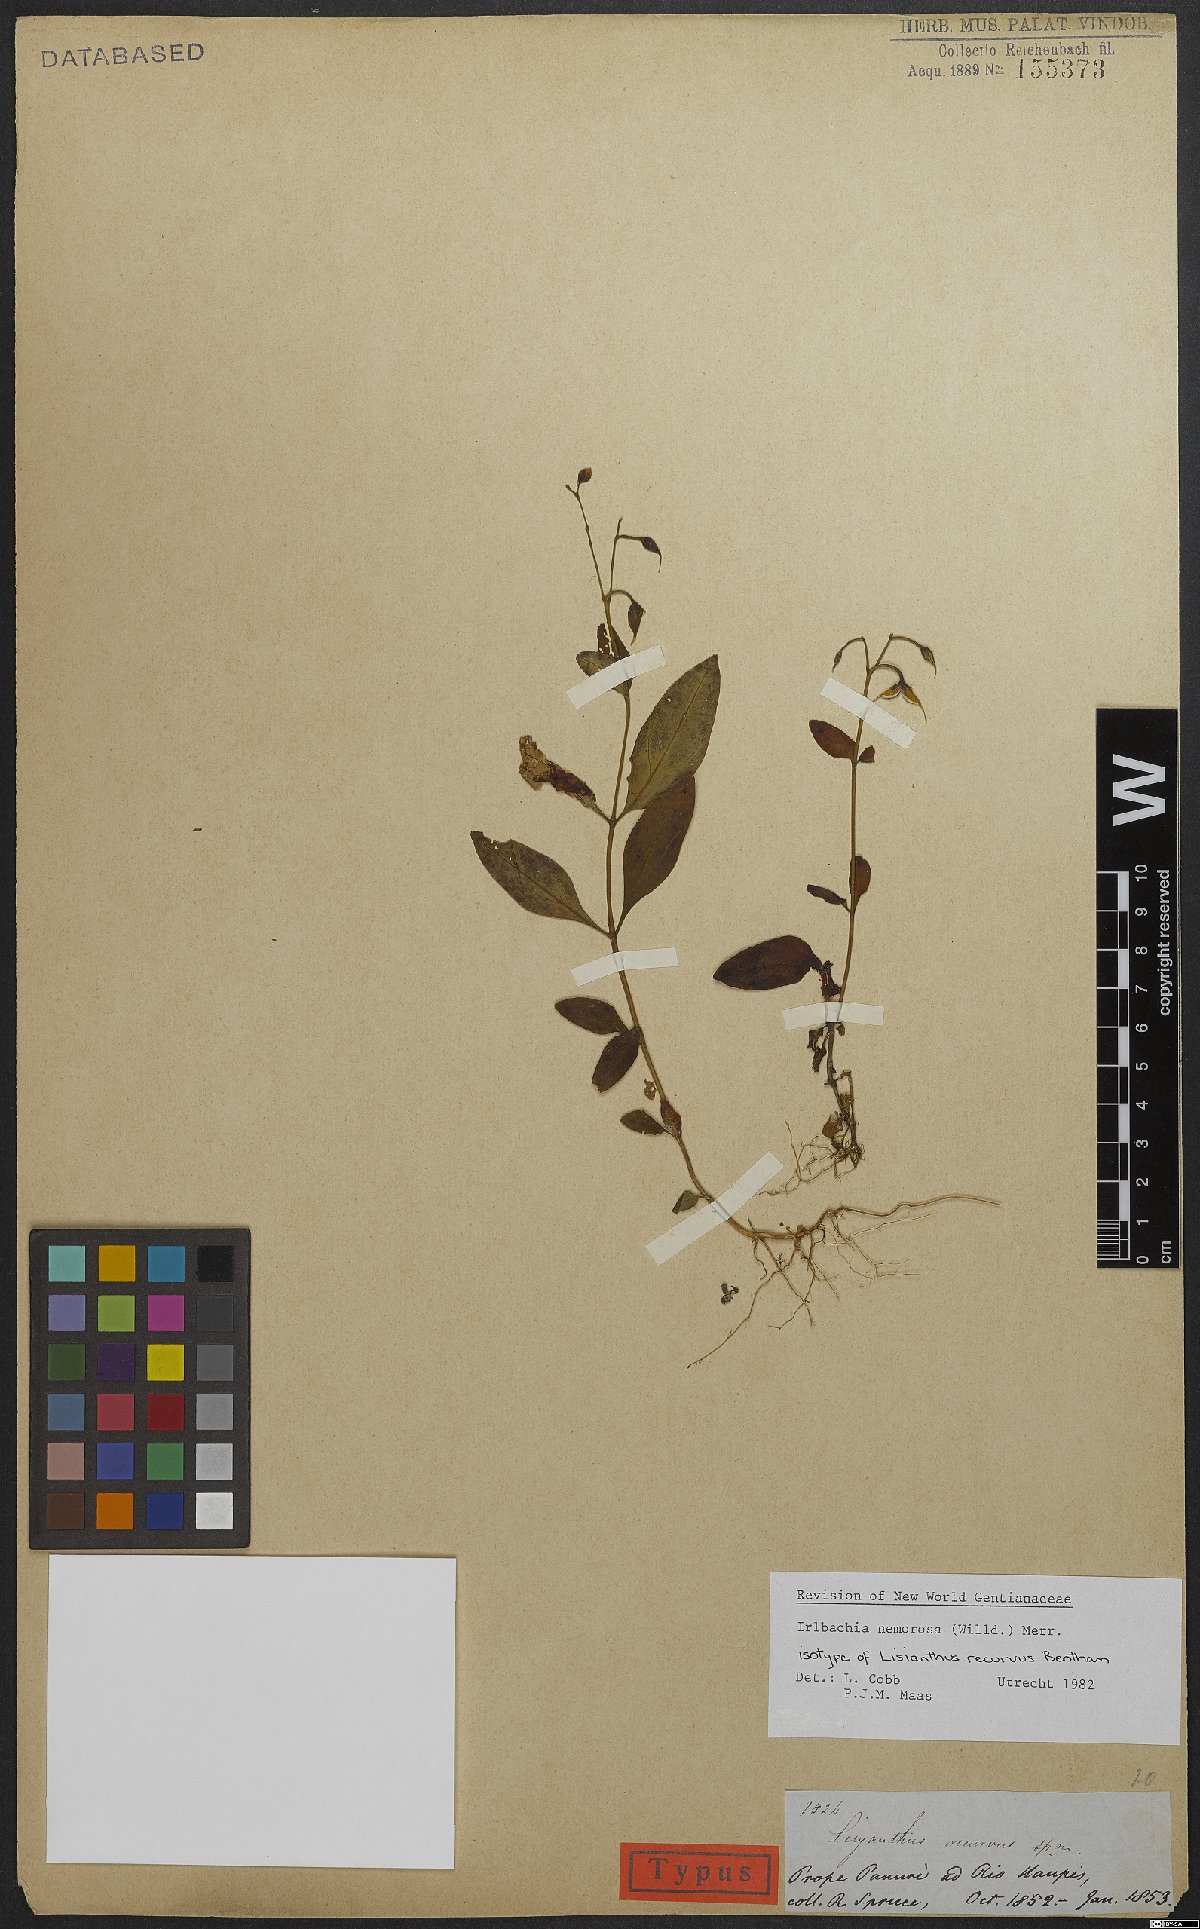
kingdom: Plantae
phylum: Tracheophyta
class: Magnoliopsida
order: Gentianales
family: Gentianaceae
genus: Irlbachia
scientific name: Irlbachia nemorosa
